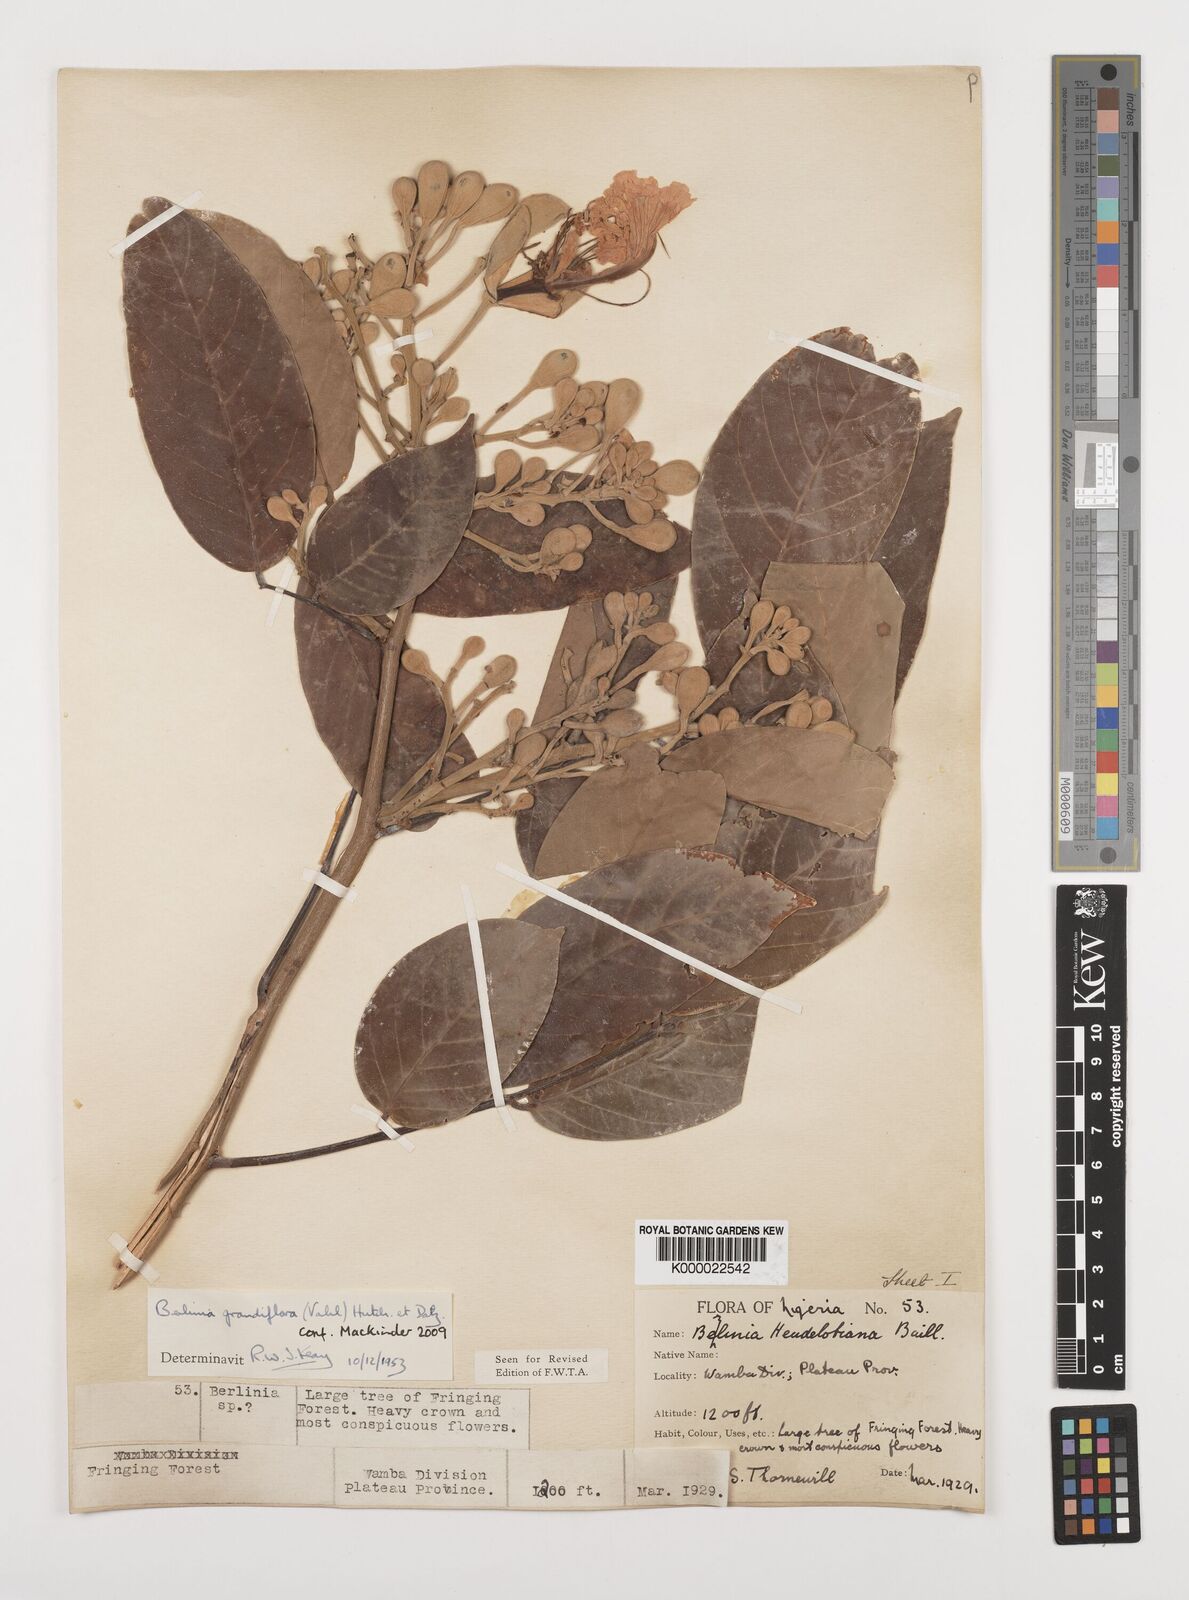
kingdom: Plantae
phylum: Tracheophyta
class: Magnoliopsida
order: Fabales
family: Fabaceae
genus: Berlinia
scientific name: Berlinia grandiflora
